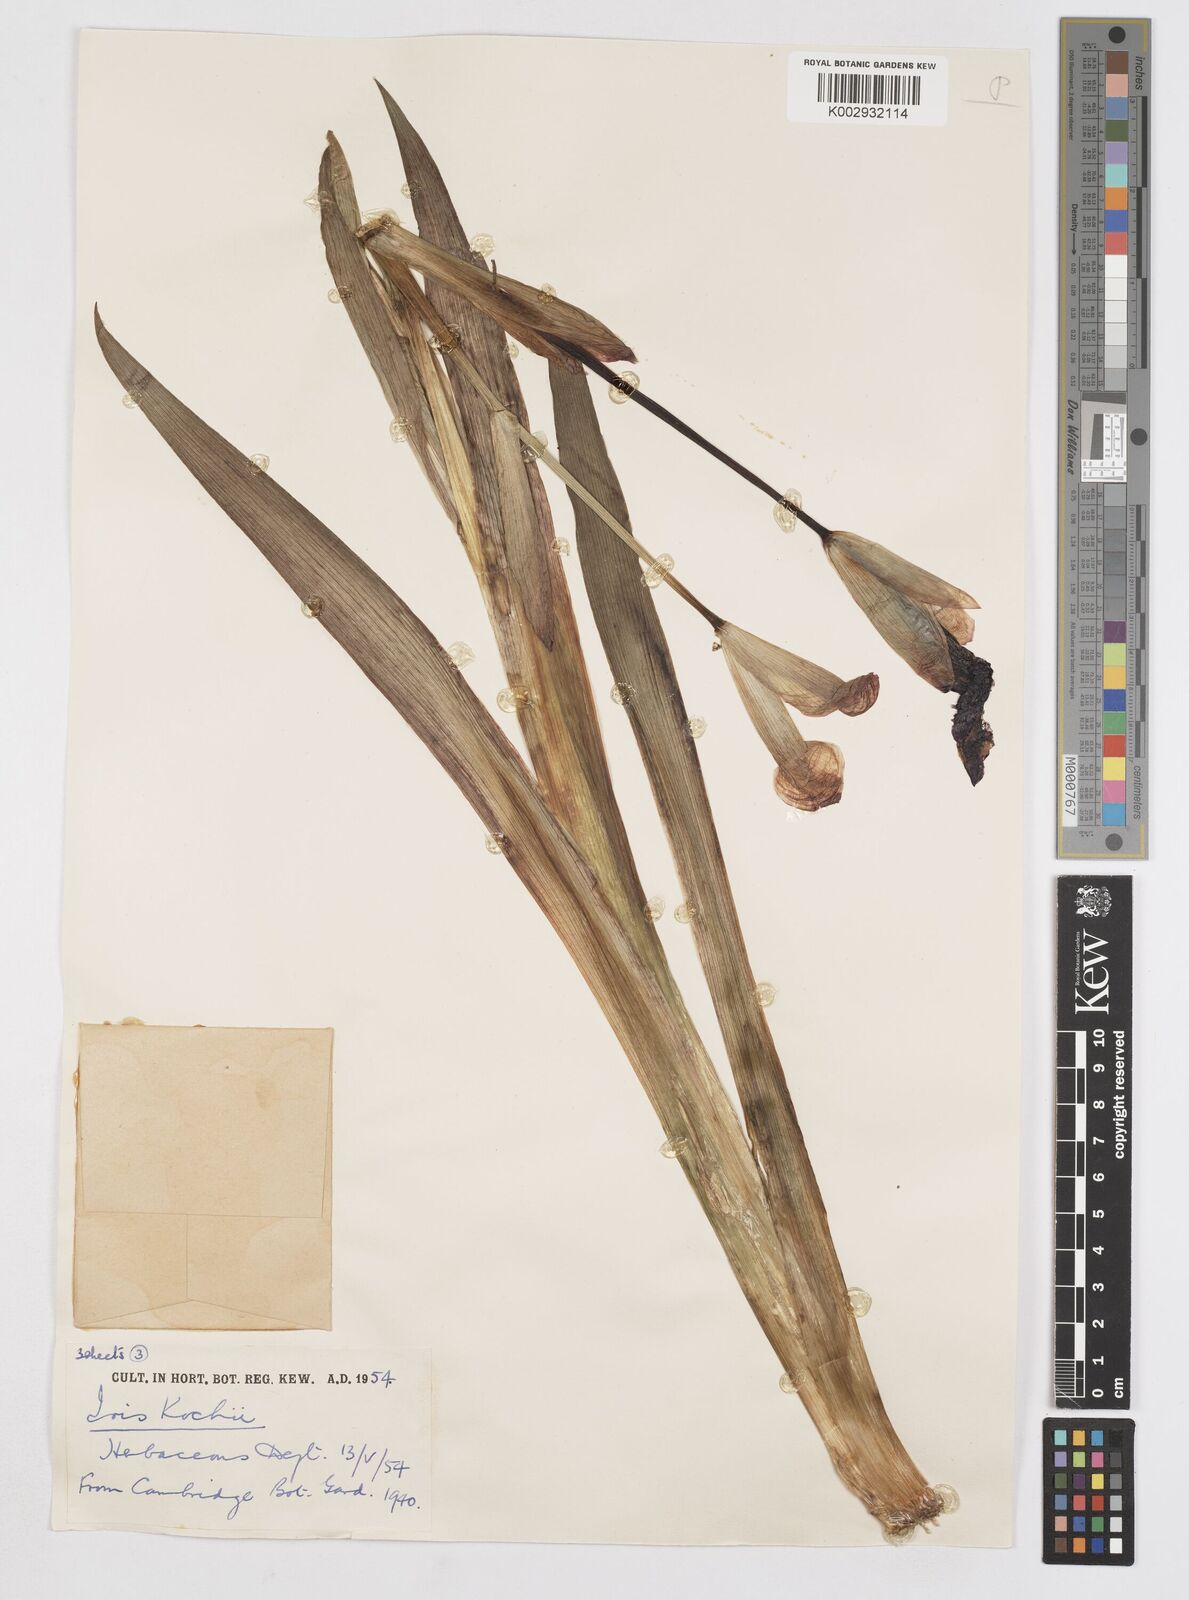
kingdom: Plantae
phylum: Tracheophyta
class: Liliopsida
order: Asparagales
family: Iridaceae
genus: Iris
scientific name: Iris kochii
